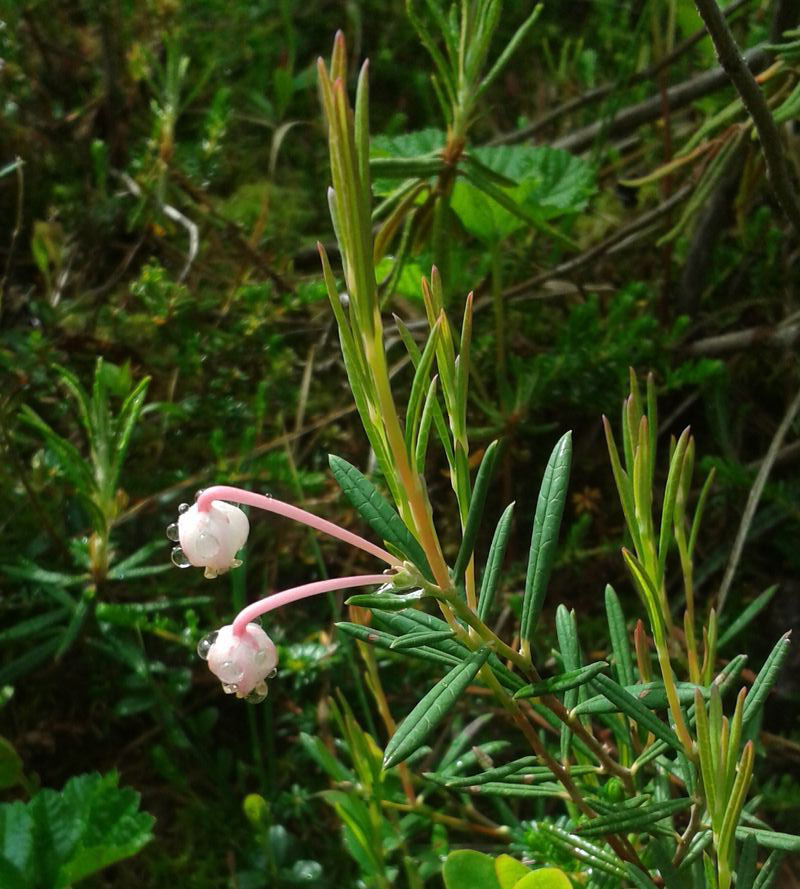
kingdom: Plantae
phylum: Tracheophyta
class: Magnoliopsida
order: Ericales
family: Ericaceae
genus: Andromeda
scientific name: Andromeda polifolia
